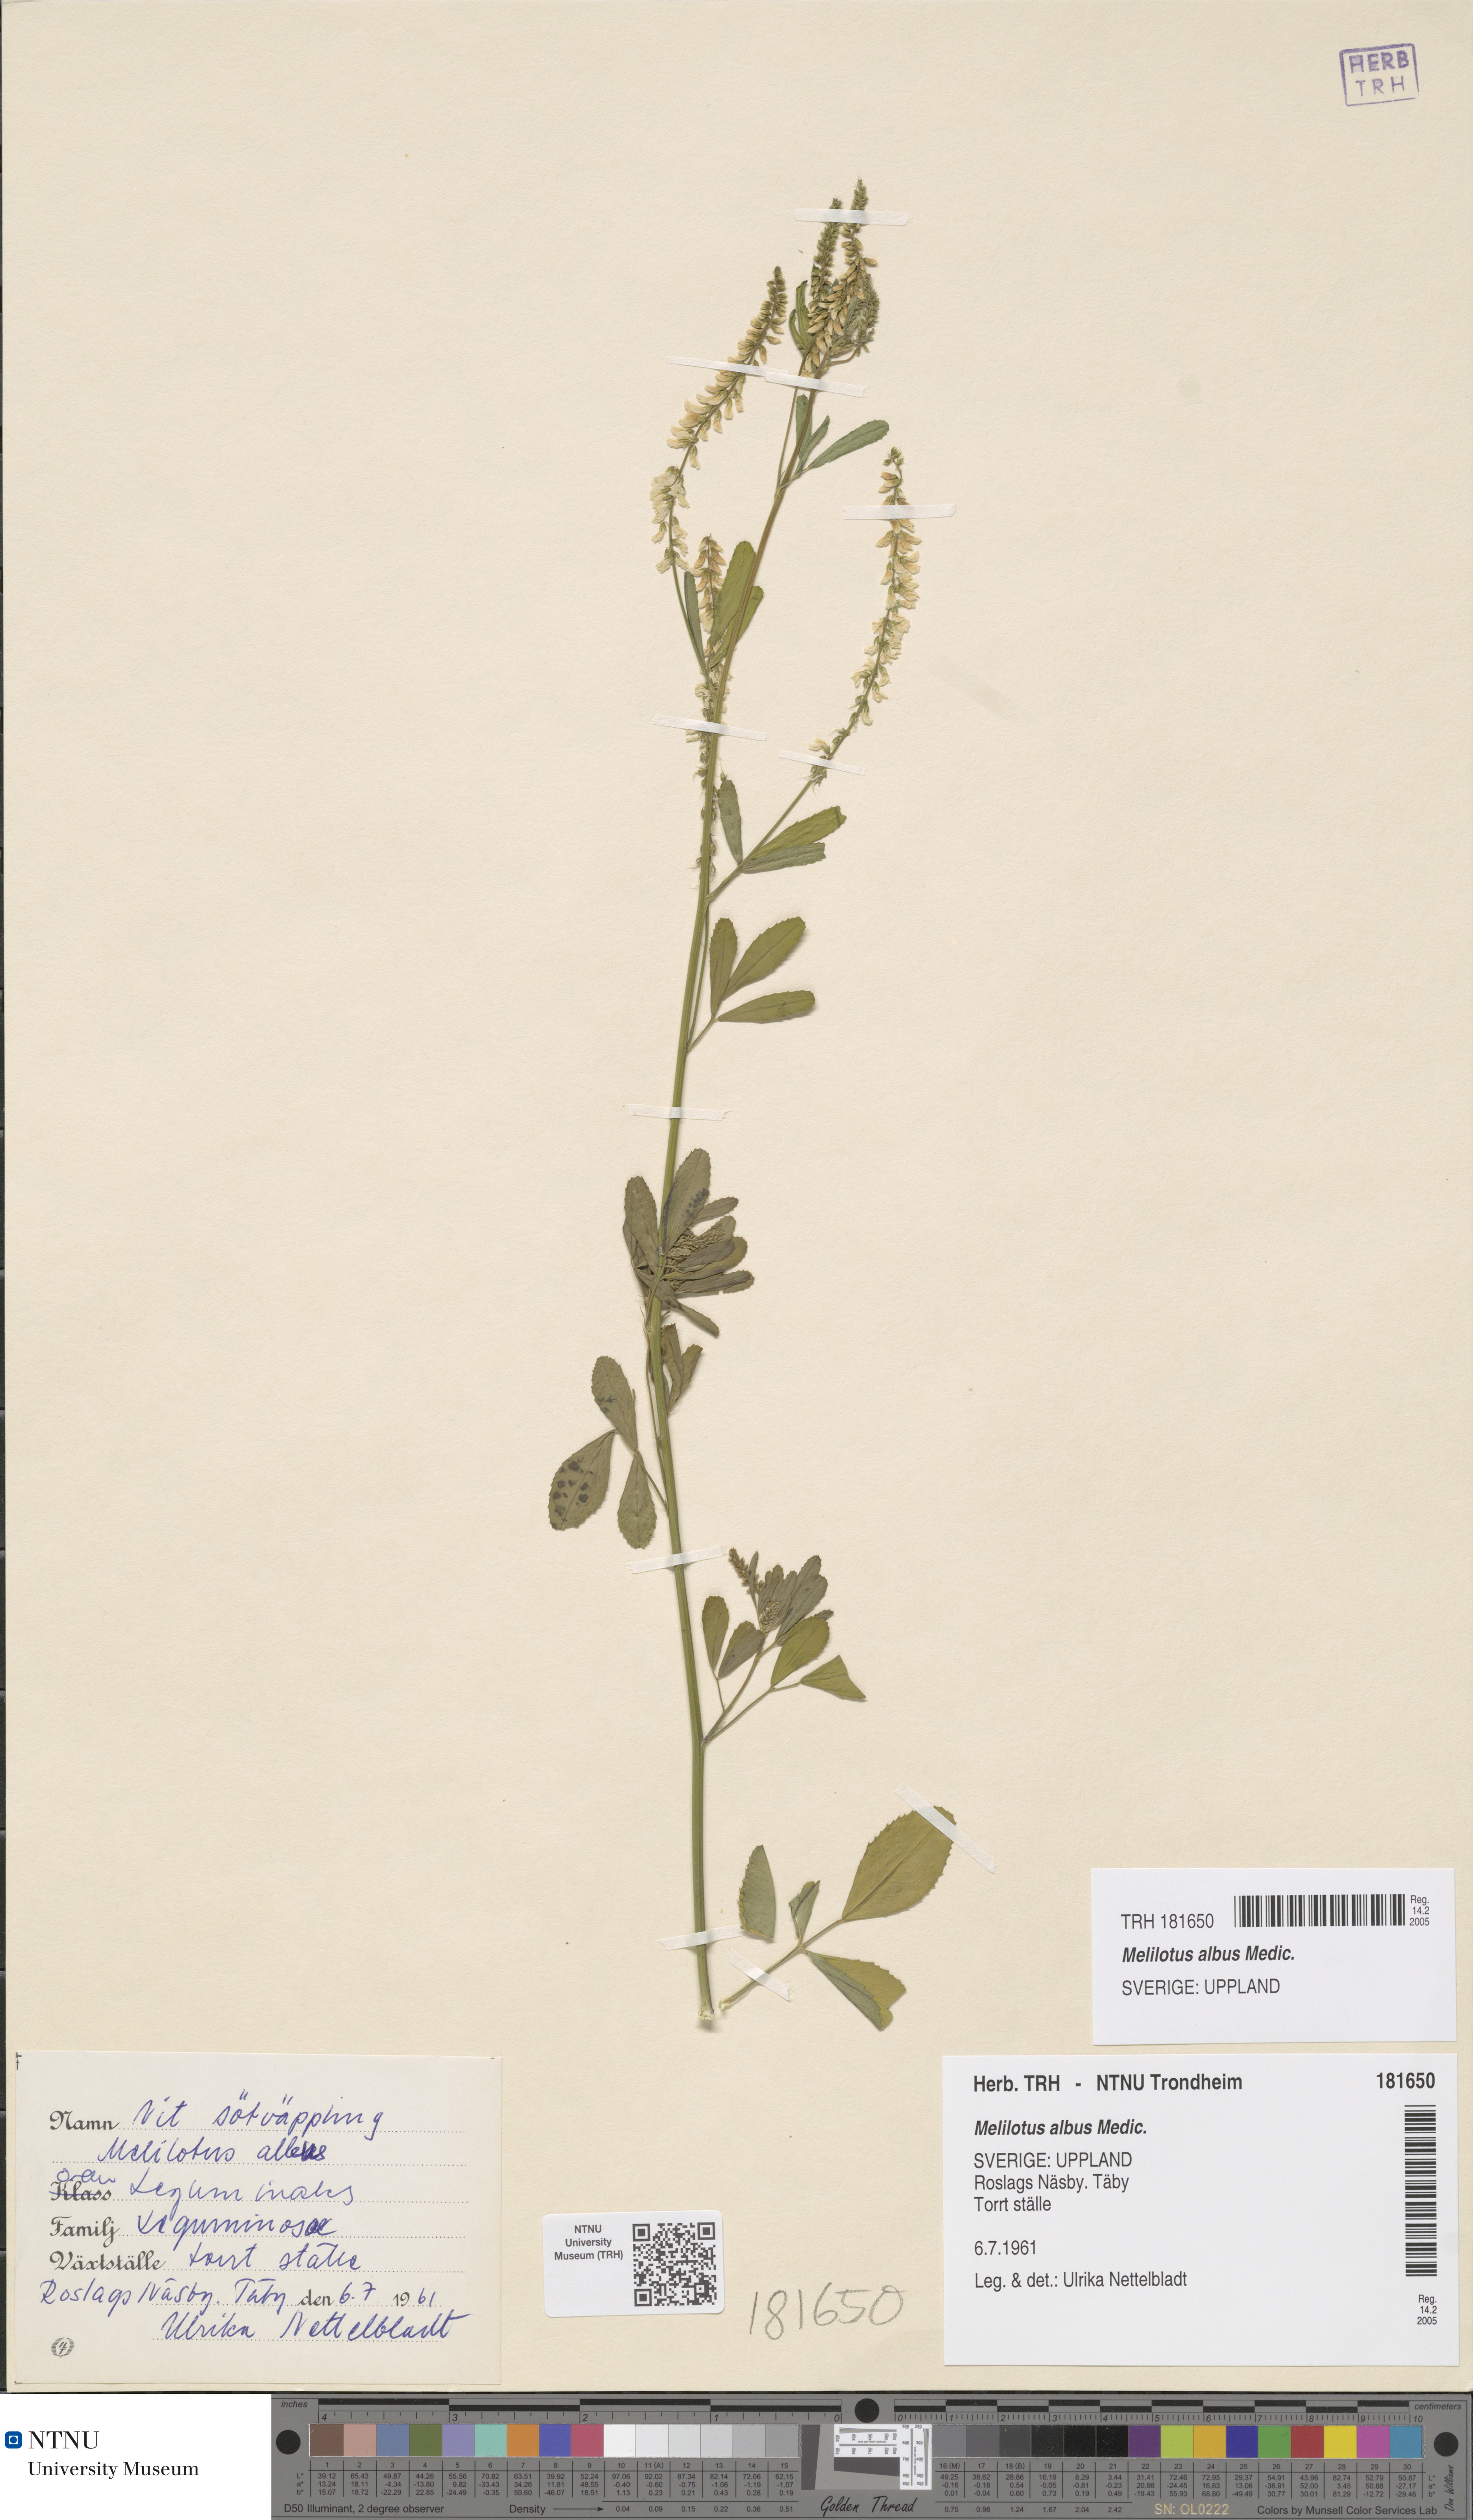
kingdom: Plantae
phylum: Tracheophyta
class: Magnoliopsida
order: Fabales
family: Fabaceae
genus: Melilotus
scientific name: Melilotus albus
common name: White melilot
